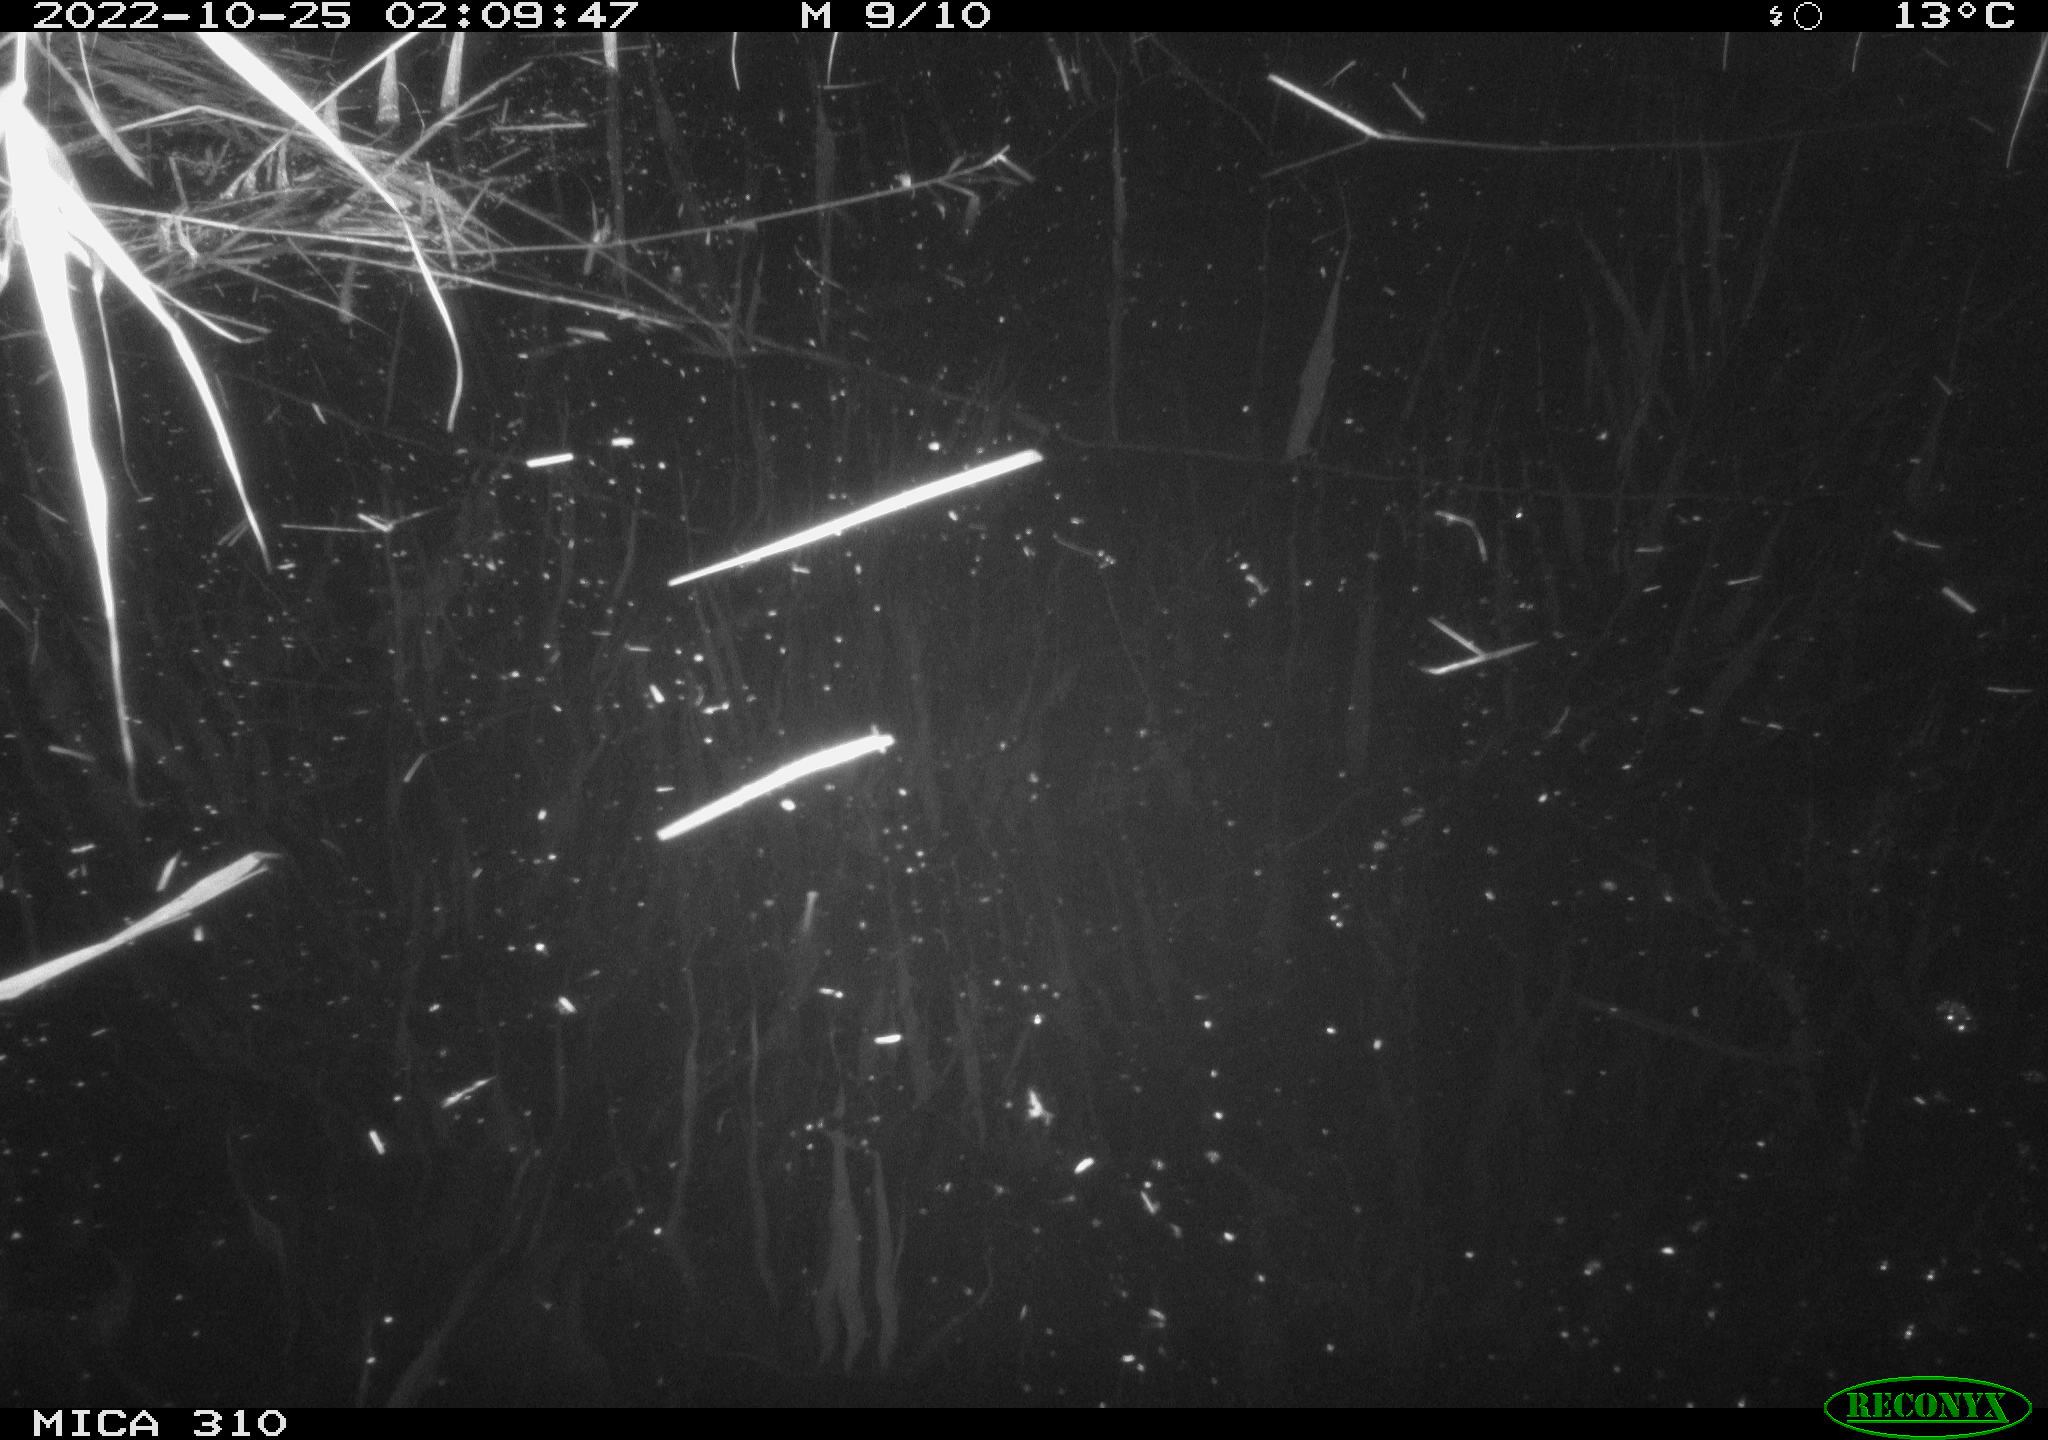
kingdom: Animalia
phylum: Chordata
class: Mammalia
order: Rodentia
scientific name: Rodentia
